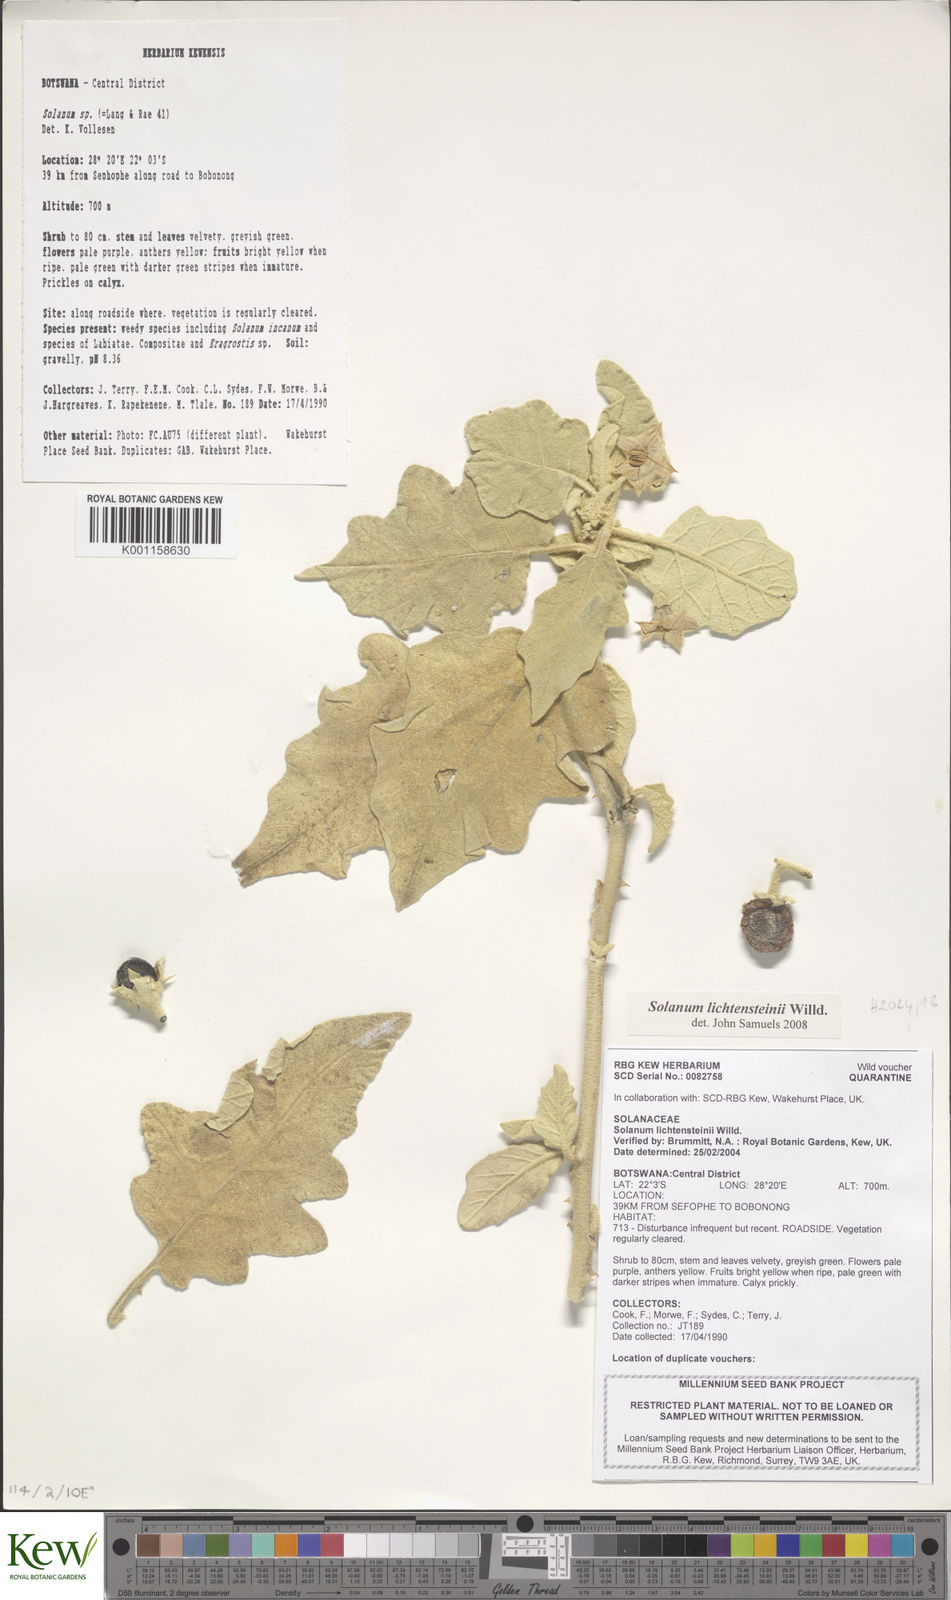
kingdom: Plantae
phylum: Tracheophyta
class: Magnoliopsida
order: Solanales
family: Solanaceae
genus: Solanum
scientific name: Solanum lichtensteinii
